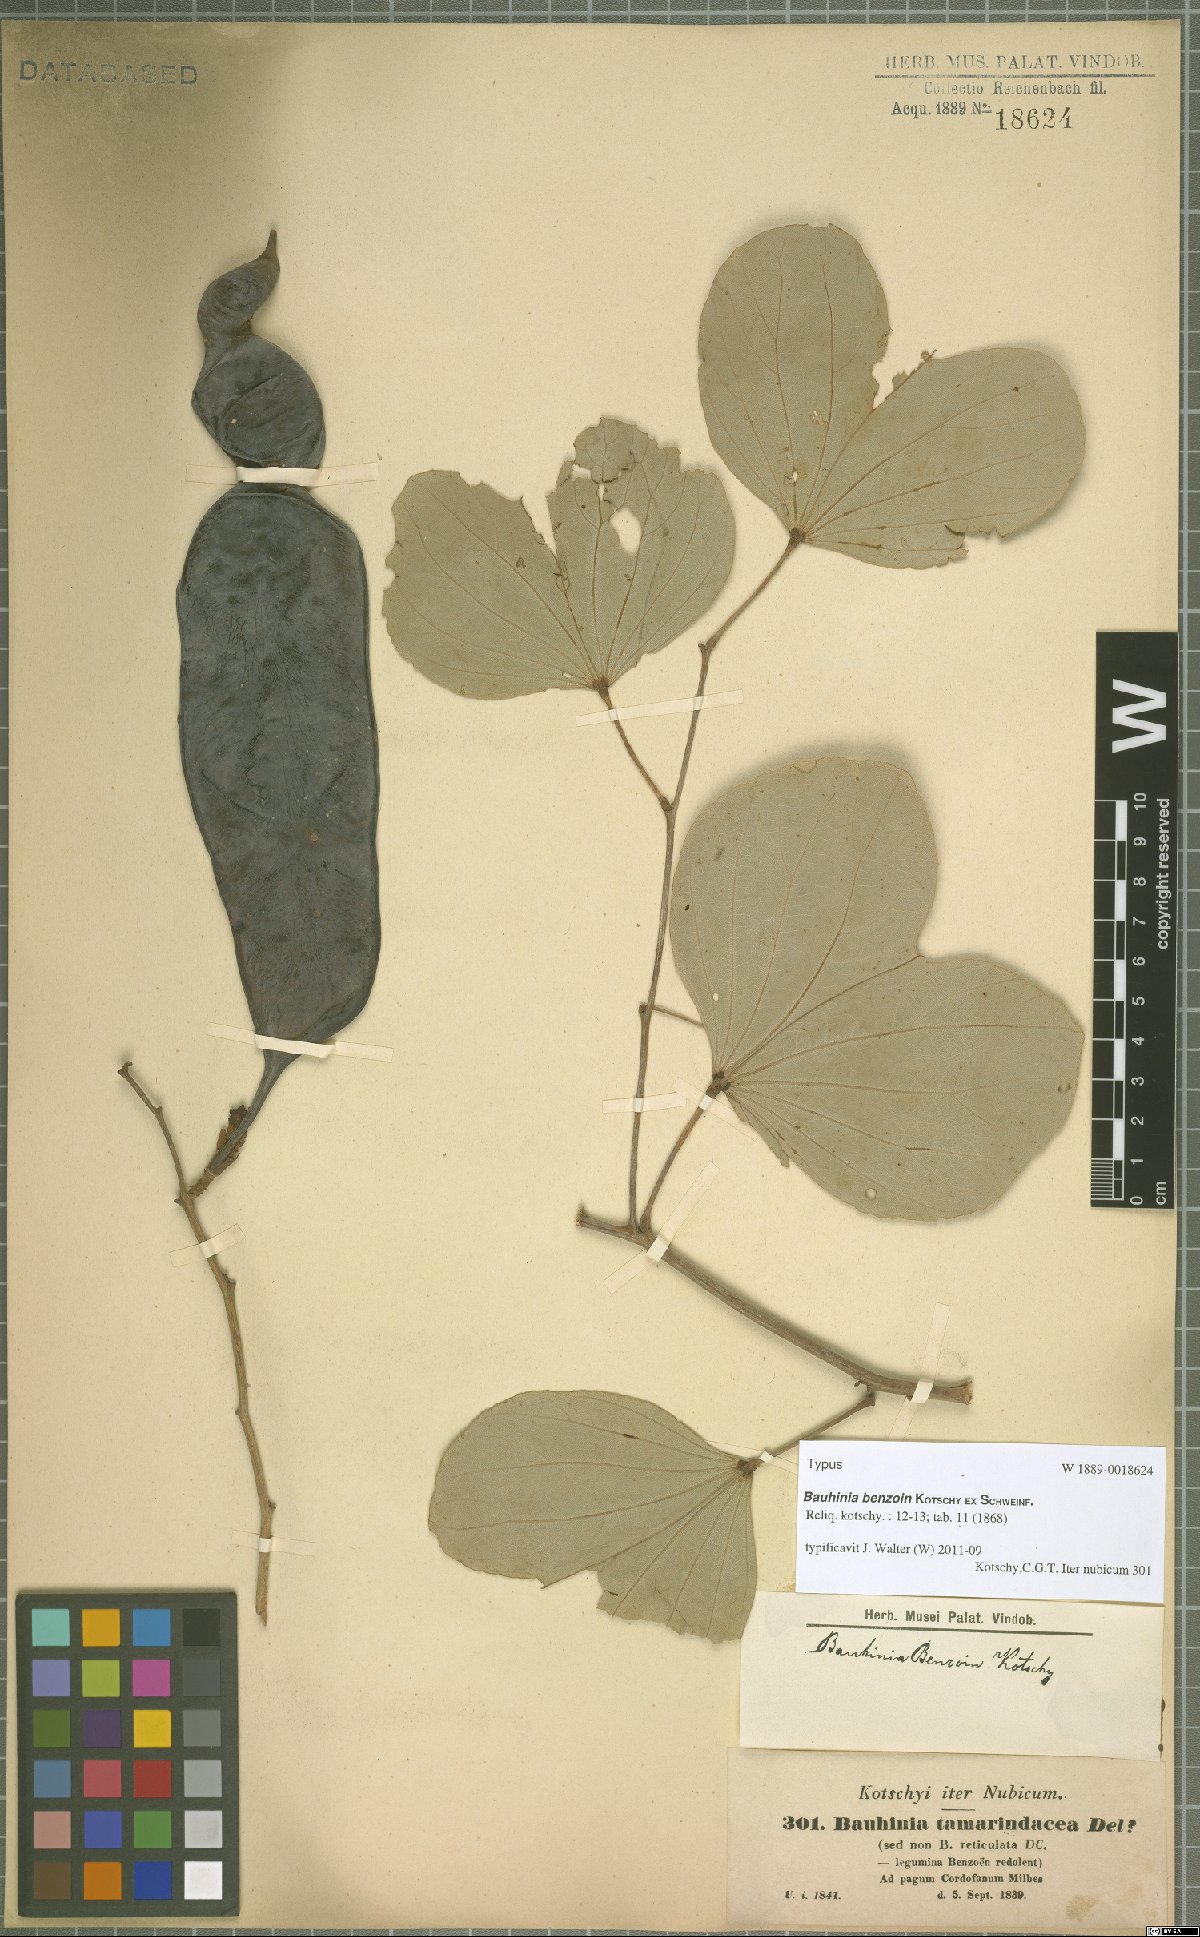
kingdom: Plantae
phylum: Tracheophyta
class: Magnoliopsida
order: Fabales
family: Fabaceae
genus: Piliostigma
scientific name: Piliostigma reticulatum
